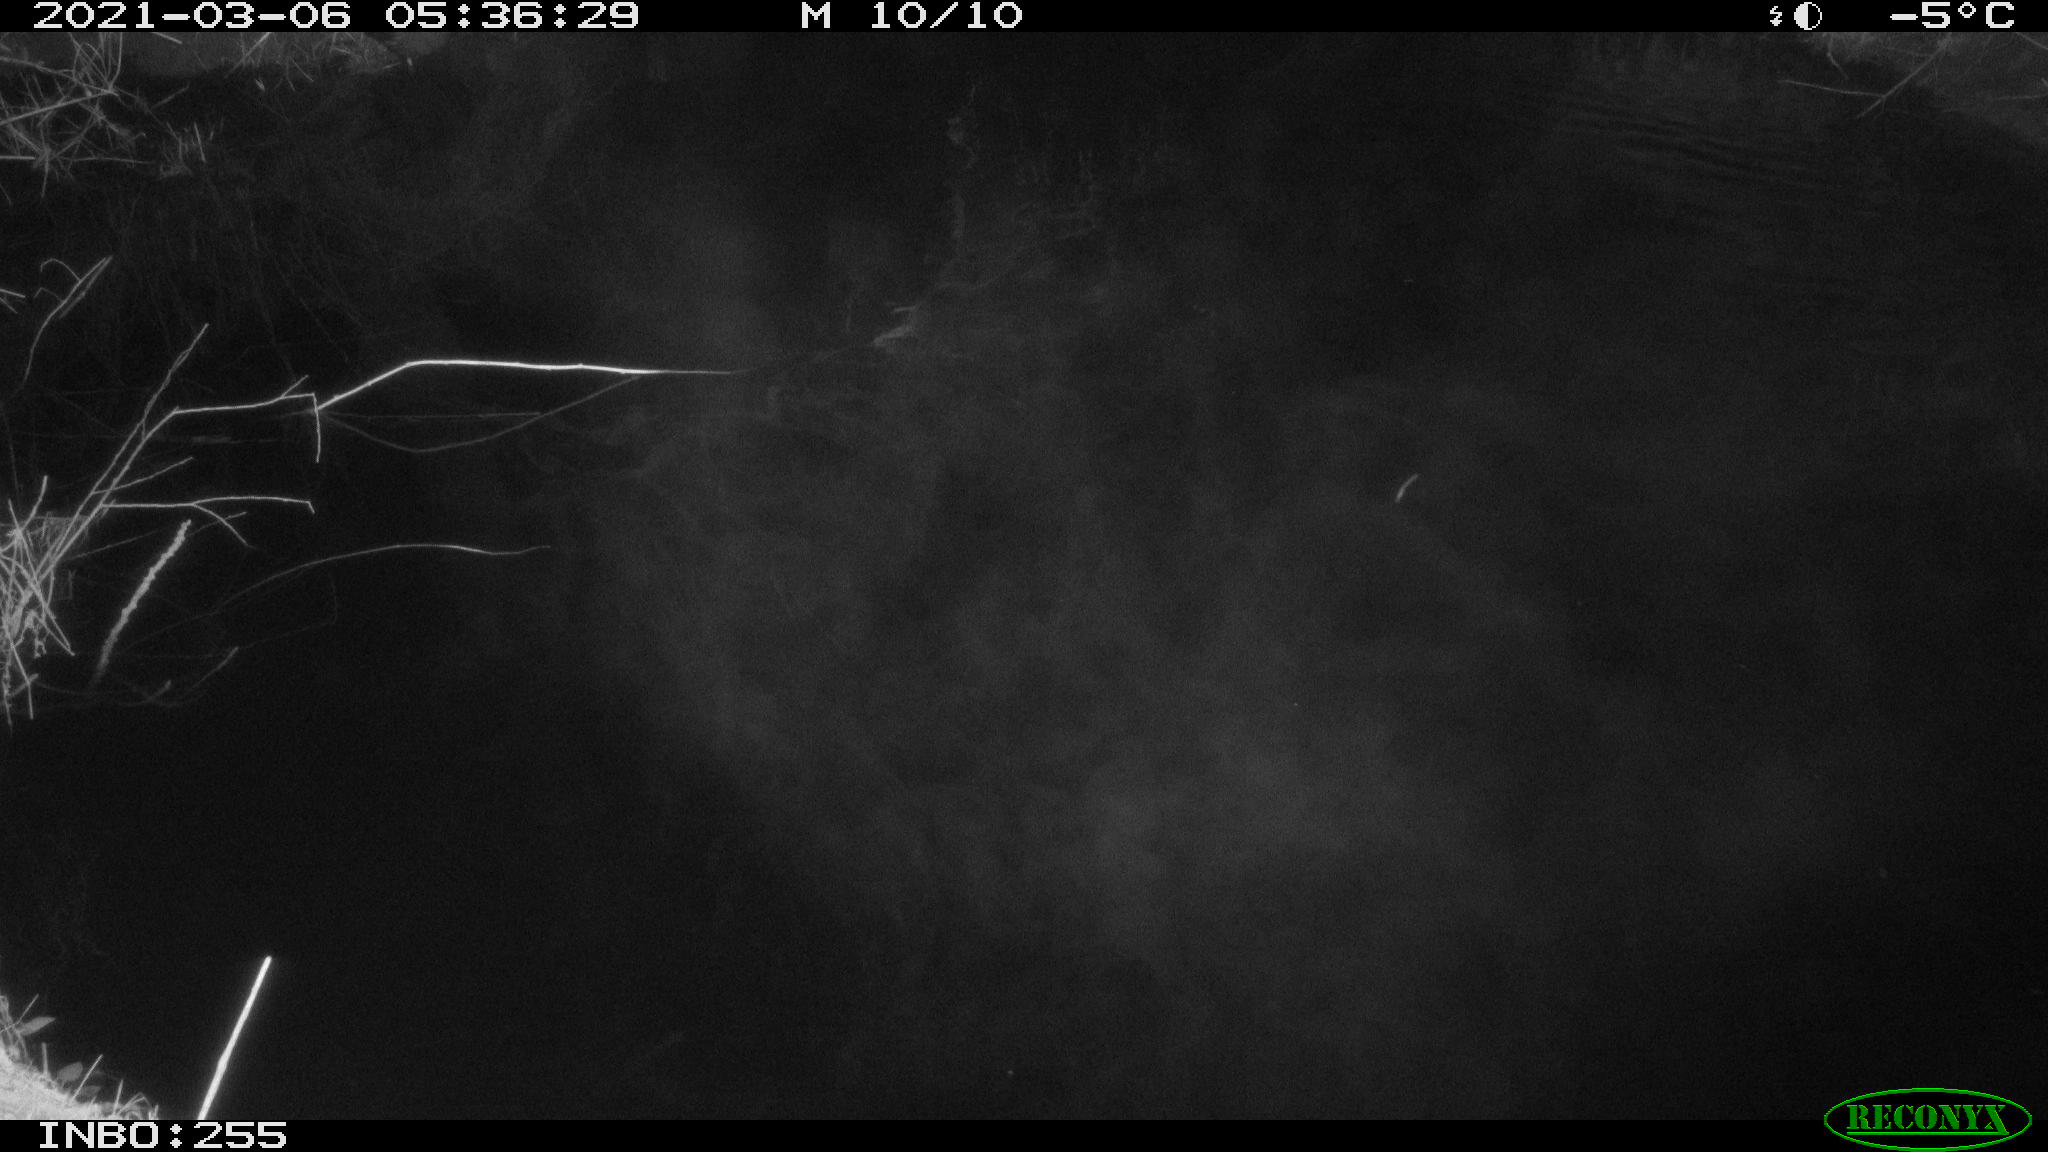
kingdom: Animalia
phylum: Chordata
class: Aves
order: Anseriformes
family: Anatidae
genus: Anas
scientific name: Anas platyrhynchos
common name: Mallard
